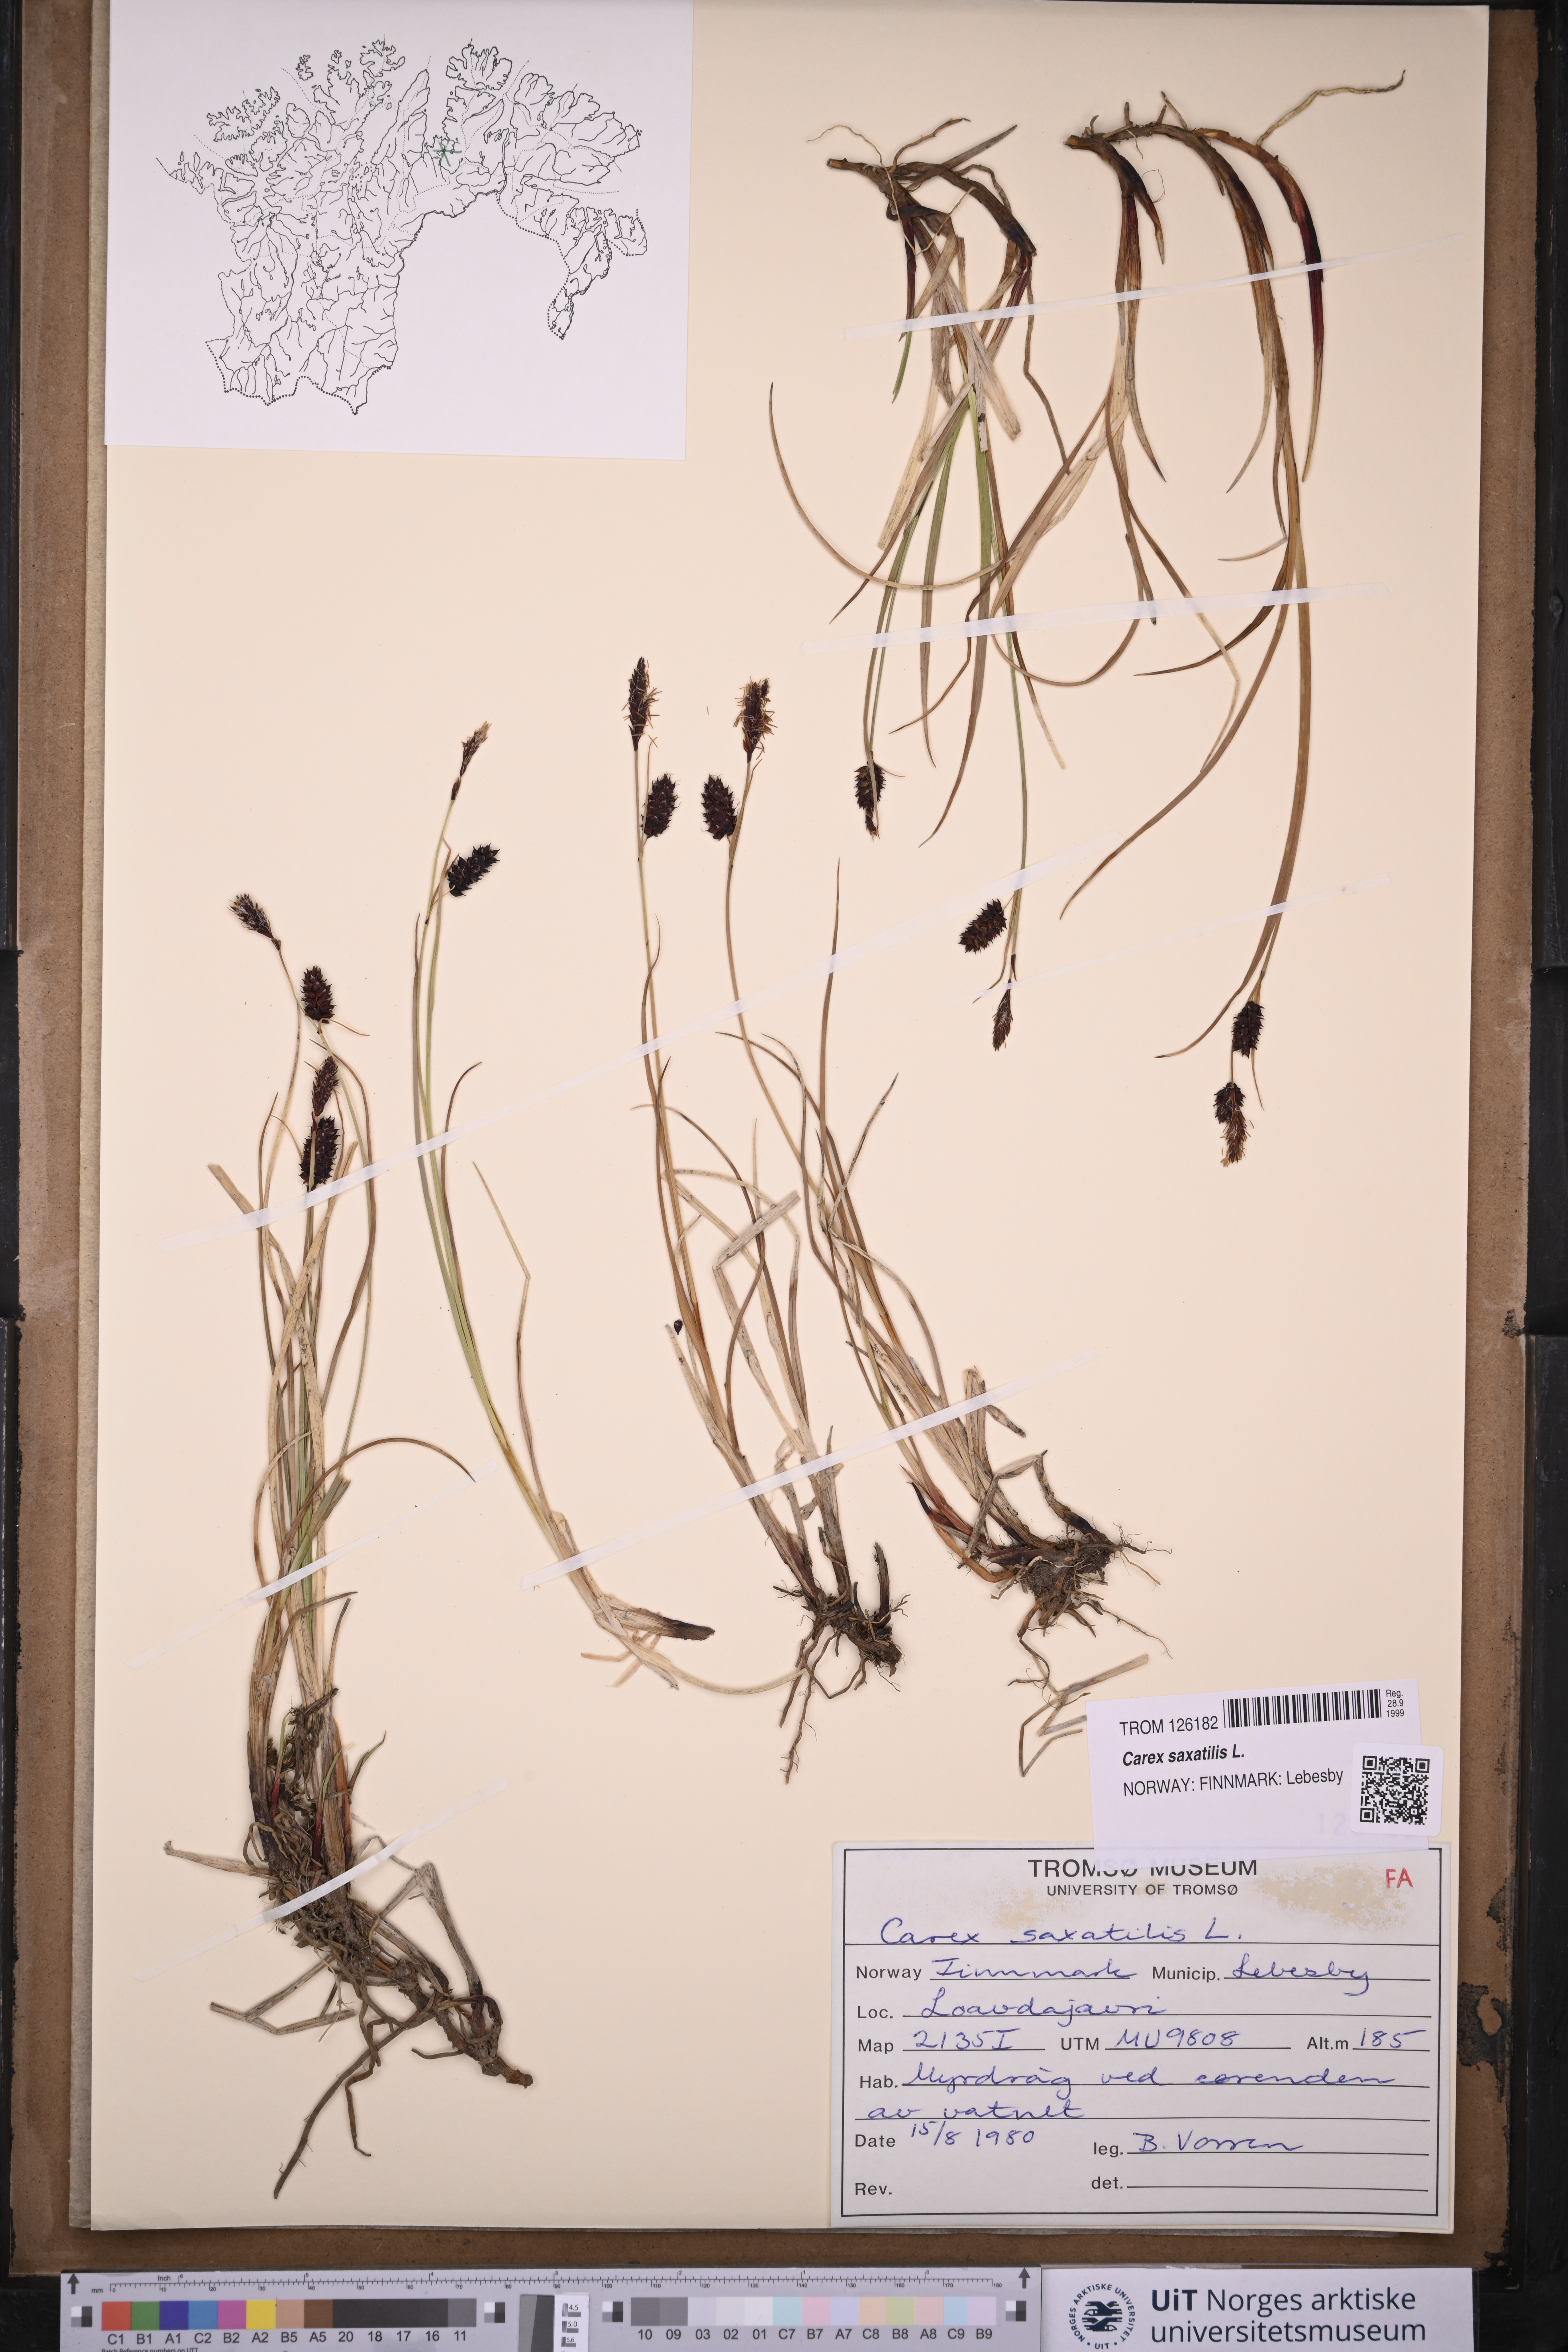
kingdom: Plantae
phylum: Tracheophyta
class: Liliopsida
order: Poales
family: Cyperaceae
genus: Carex
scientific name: Carex saxatilis
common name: Russet sedge
